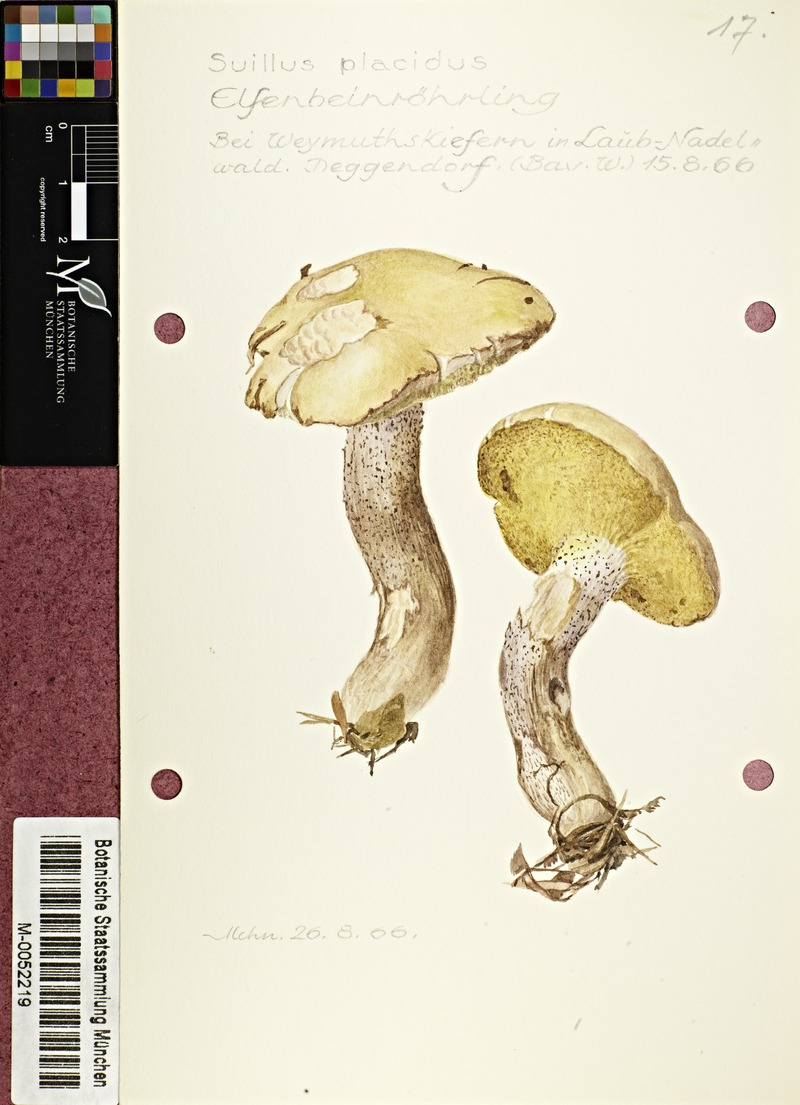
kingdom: Fungi
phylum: Basidiomycota
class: Agaricomycetes
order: Boletales
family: Suillaceae
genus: Suillus
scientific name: Suillus placidus
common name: Slippery white bolete
